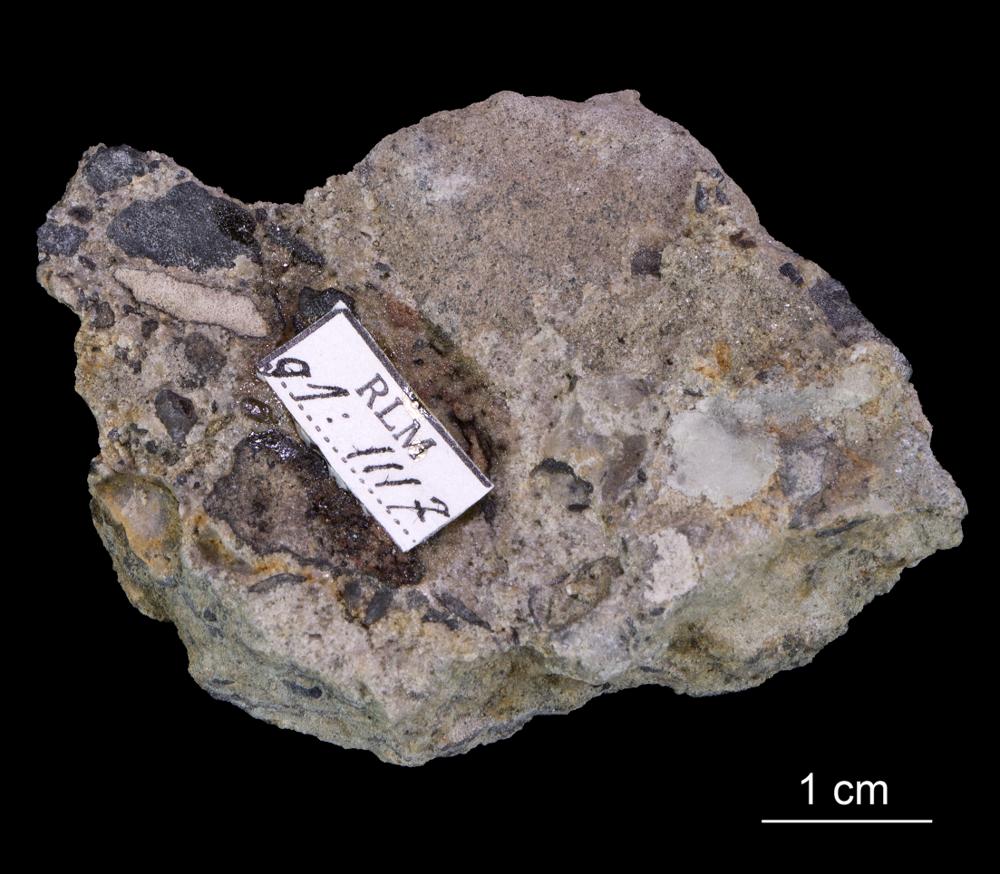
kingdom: Animalia
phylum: Mollusca
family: Scenellidae
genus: Scenella
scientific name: Scenella
